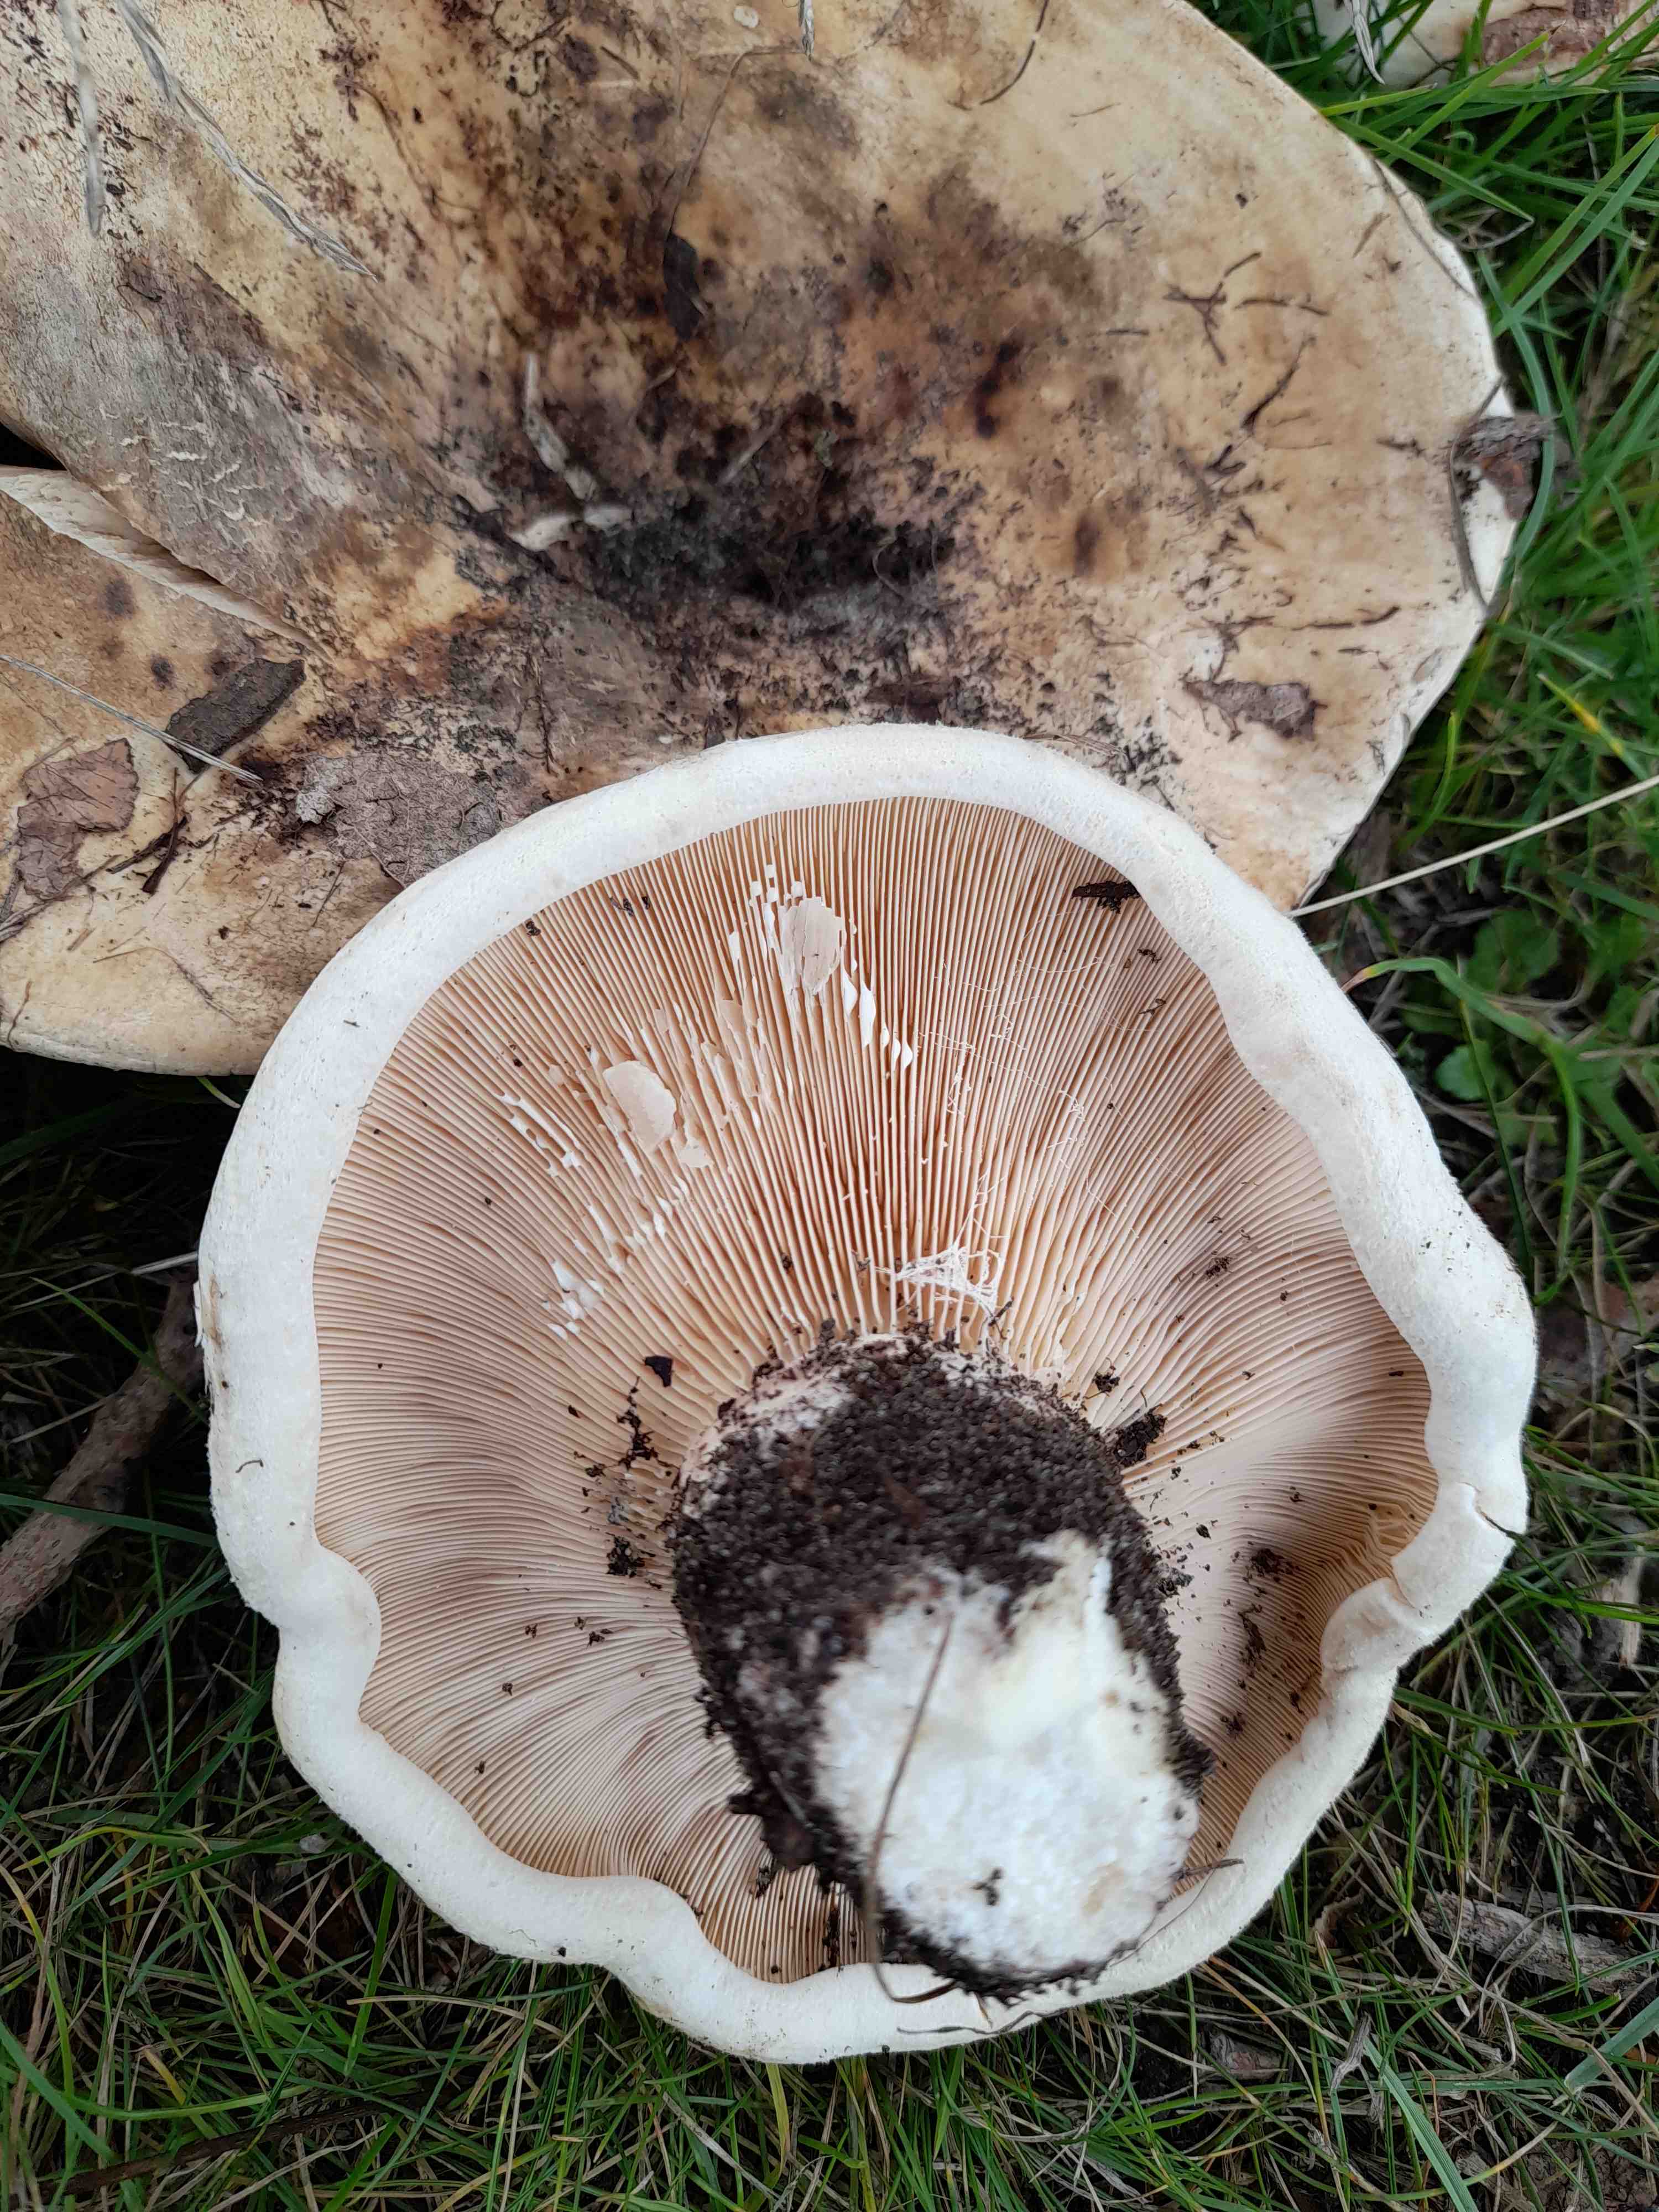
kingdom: Fungi
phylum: Basidiomycota
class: Agaricomycetes
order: Russulales
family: Russulaceae
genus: Lactarius
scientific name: Lactarius controversus
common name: rosabladet mælkehat
